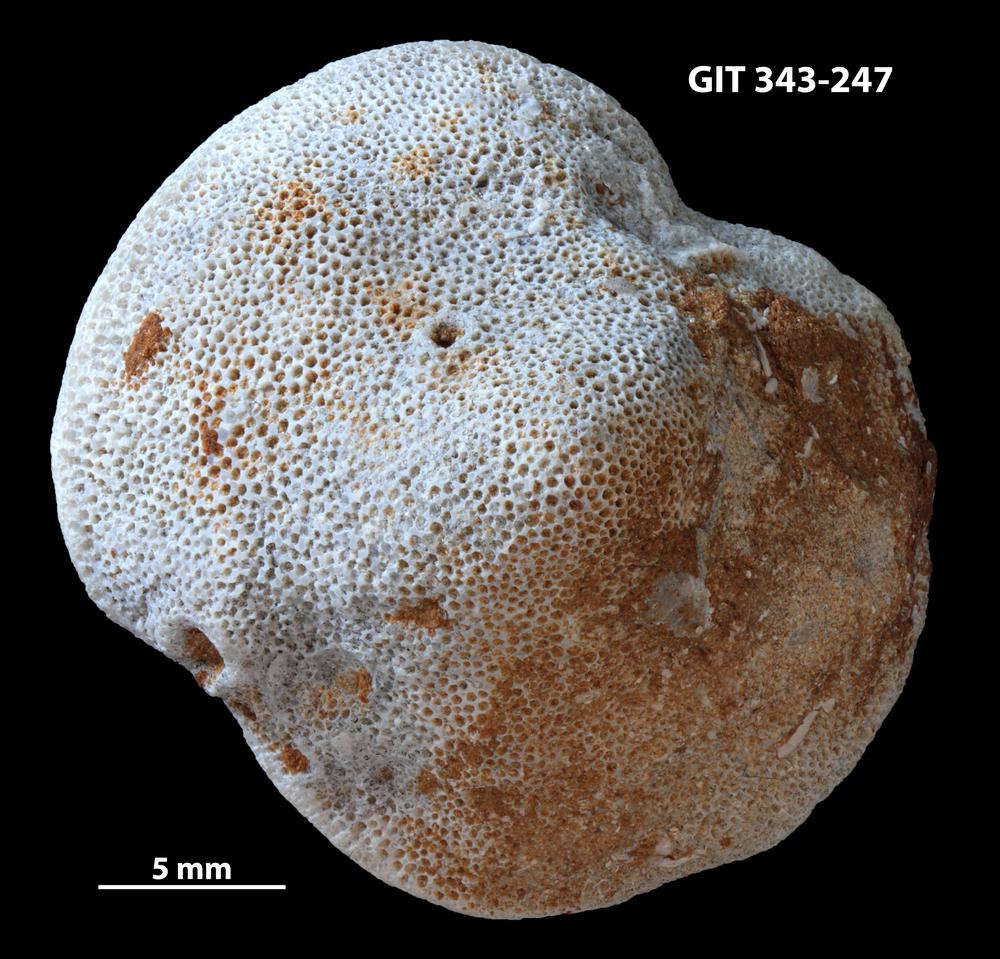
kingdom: Animalia
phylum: Bryozoa
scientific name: Bryozoa
